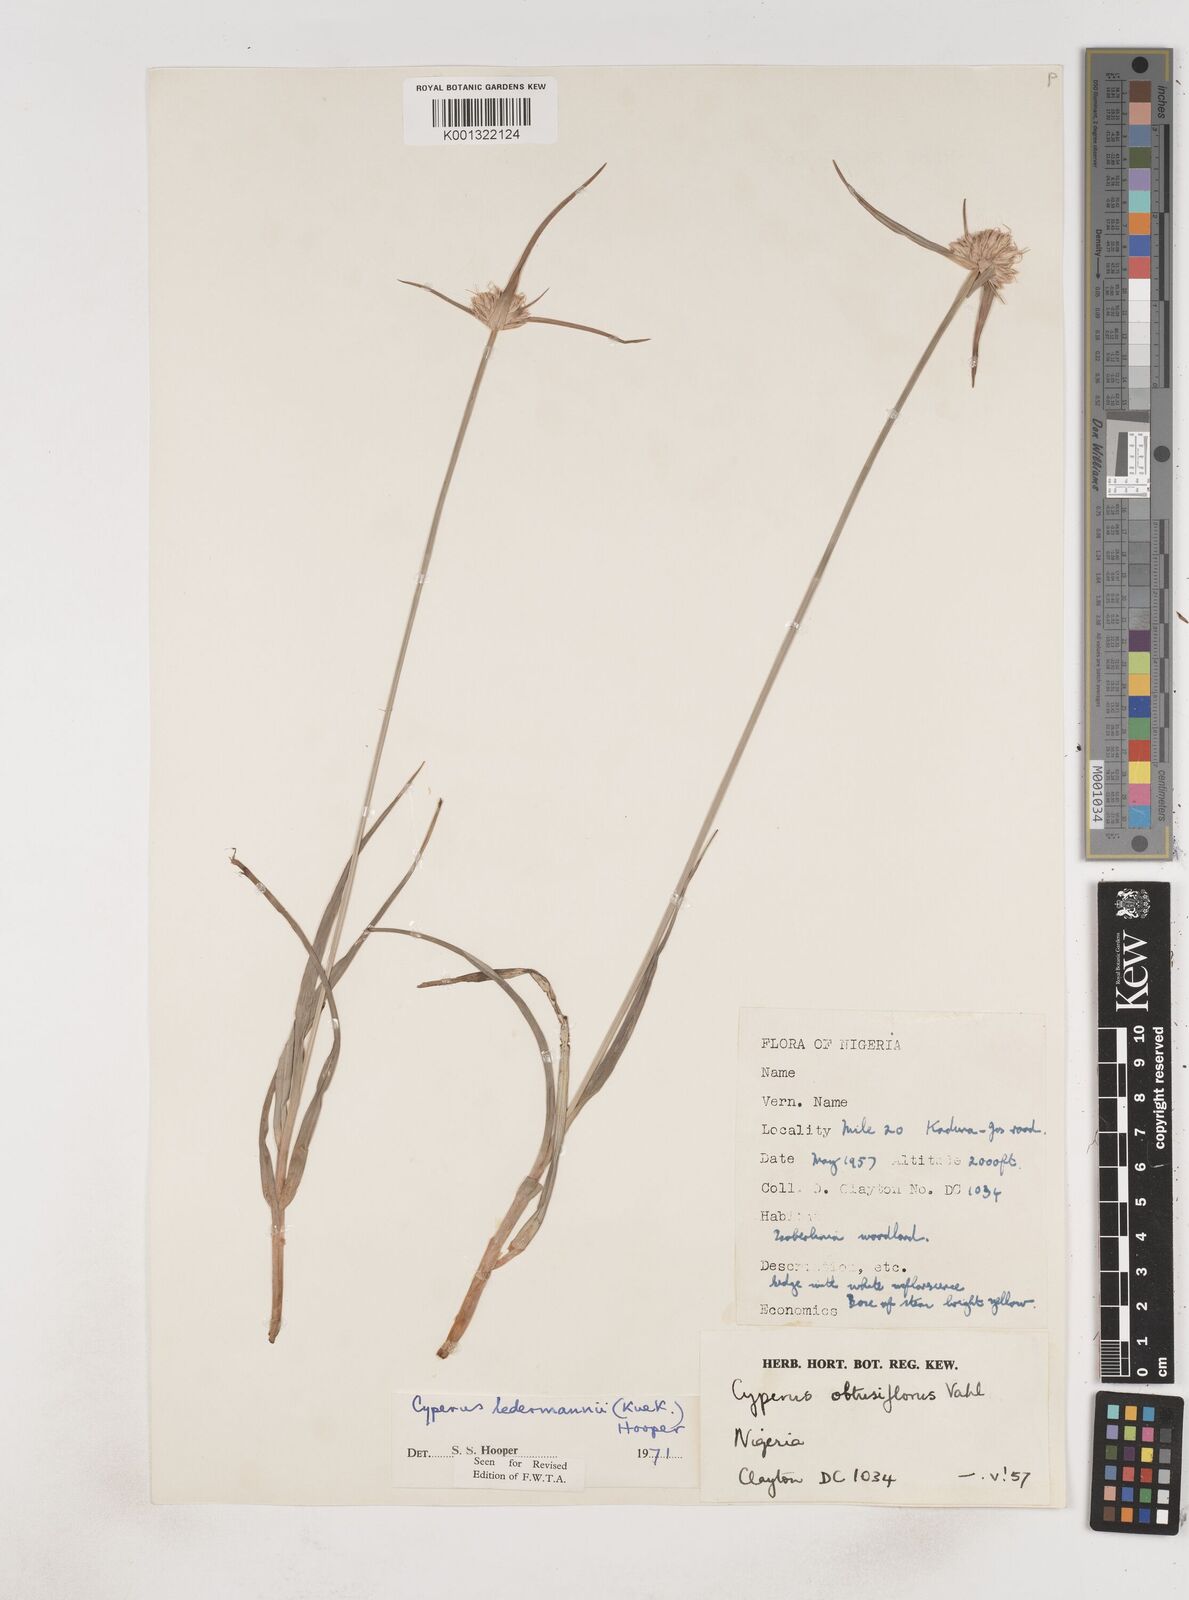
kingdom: Plantae
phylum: Tracheophyta
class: Liliopsida
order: Poales
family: Cyperaceae
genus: Cyperus
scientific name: Cyperus niveus
